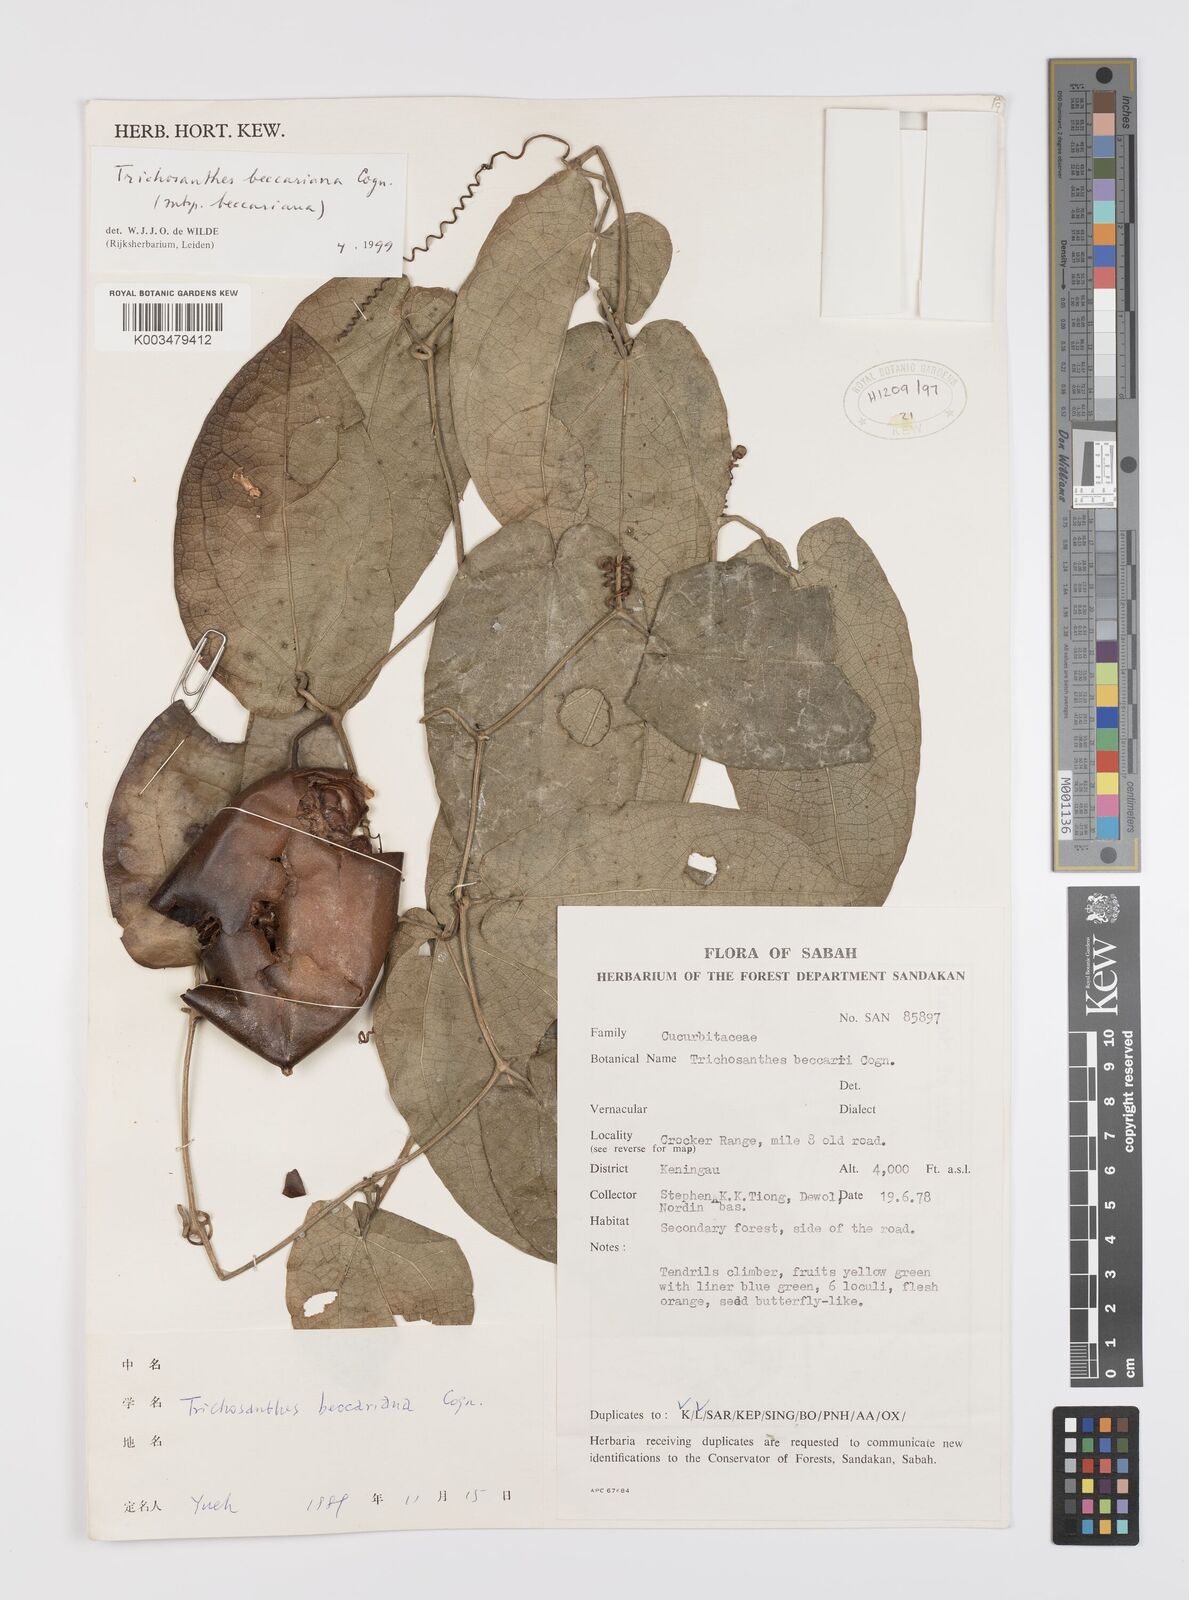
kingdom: Plantae
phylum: Tracheophyta
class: Magnoliopsida
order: Cucurbitales
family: Cucurbitaceae
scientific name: Cucurbitaceae
